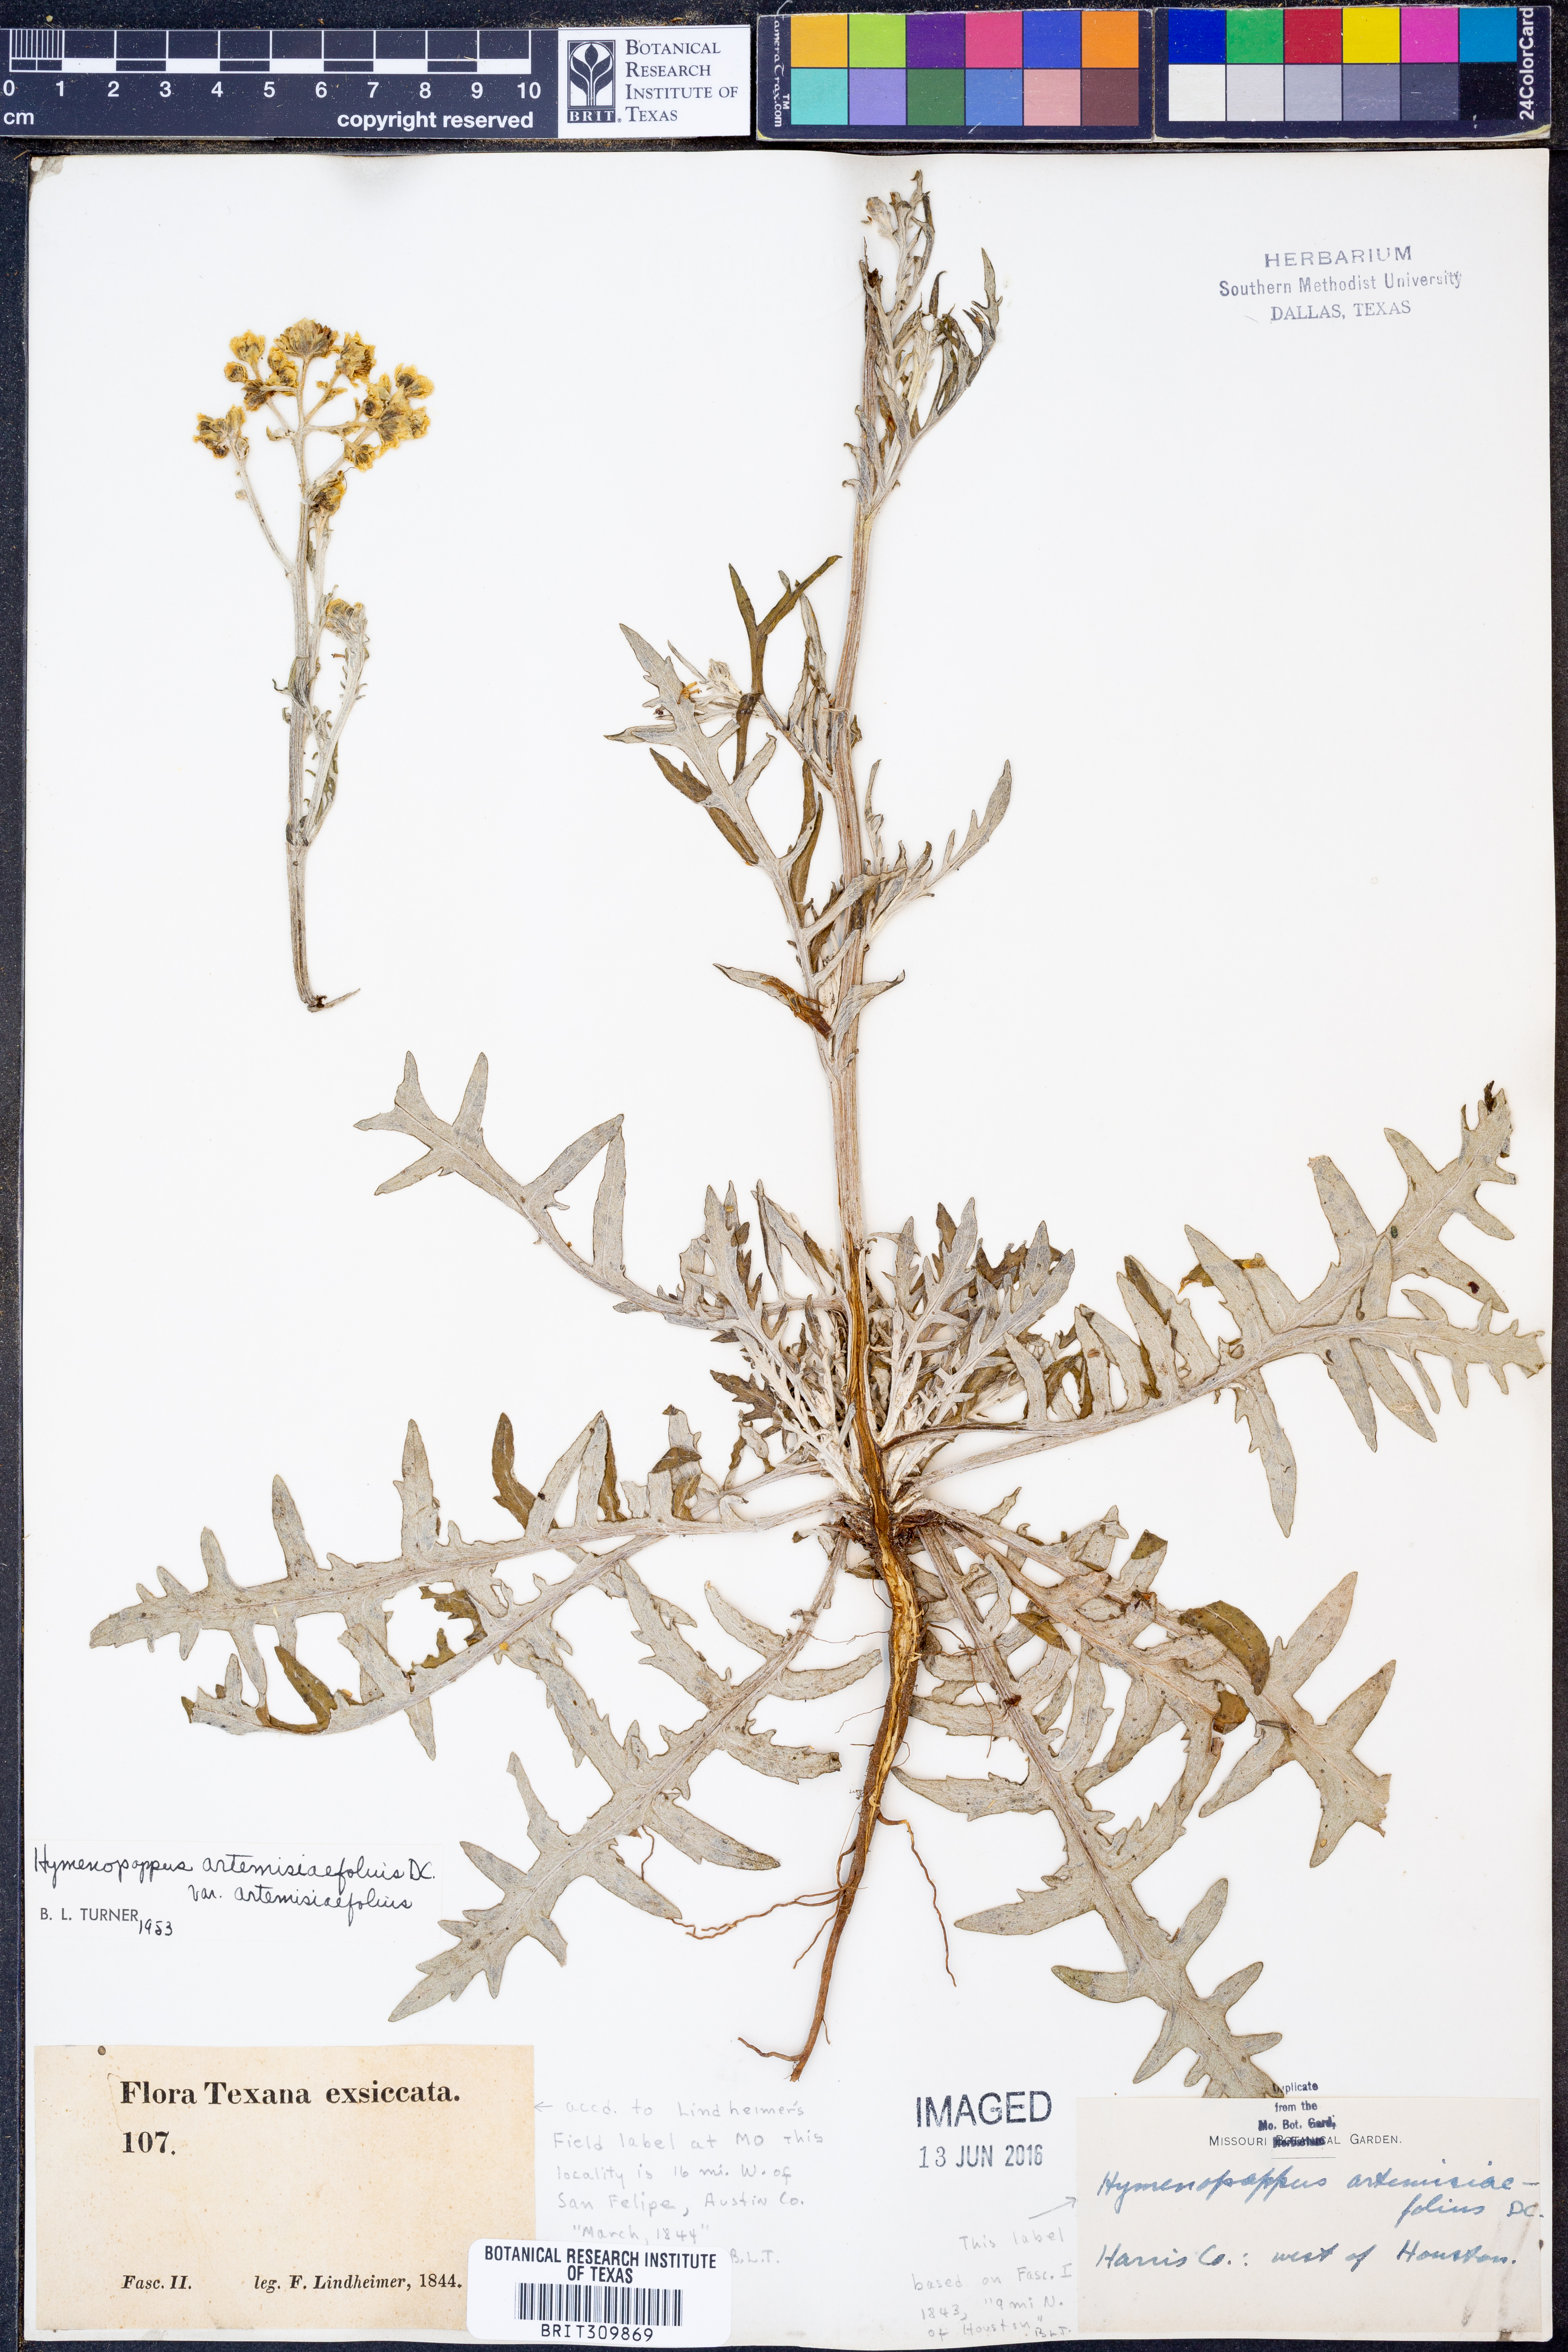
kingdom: Plantae
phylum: Tracheophyta
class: Magnoliopsida
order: Asterales
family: Asteraceae
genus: Hymenopappus
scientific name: Hymenopappus artemisiifolius
